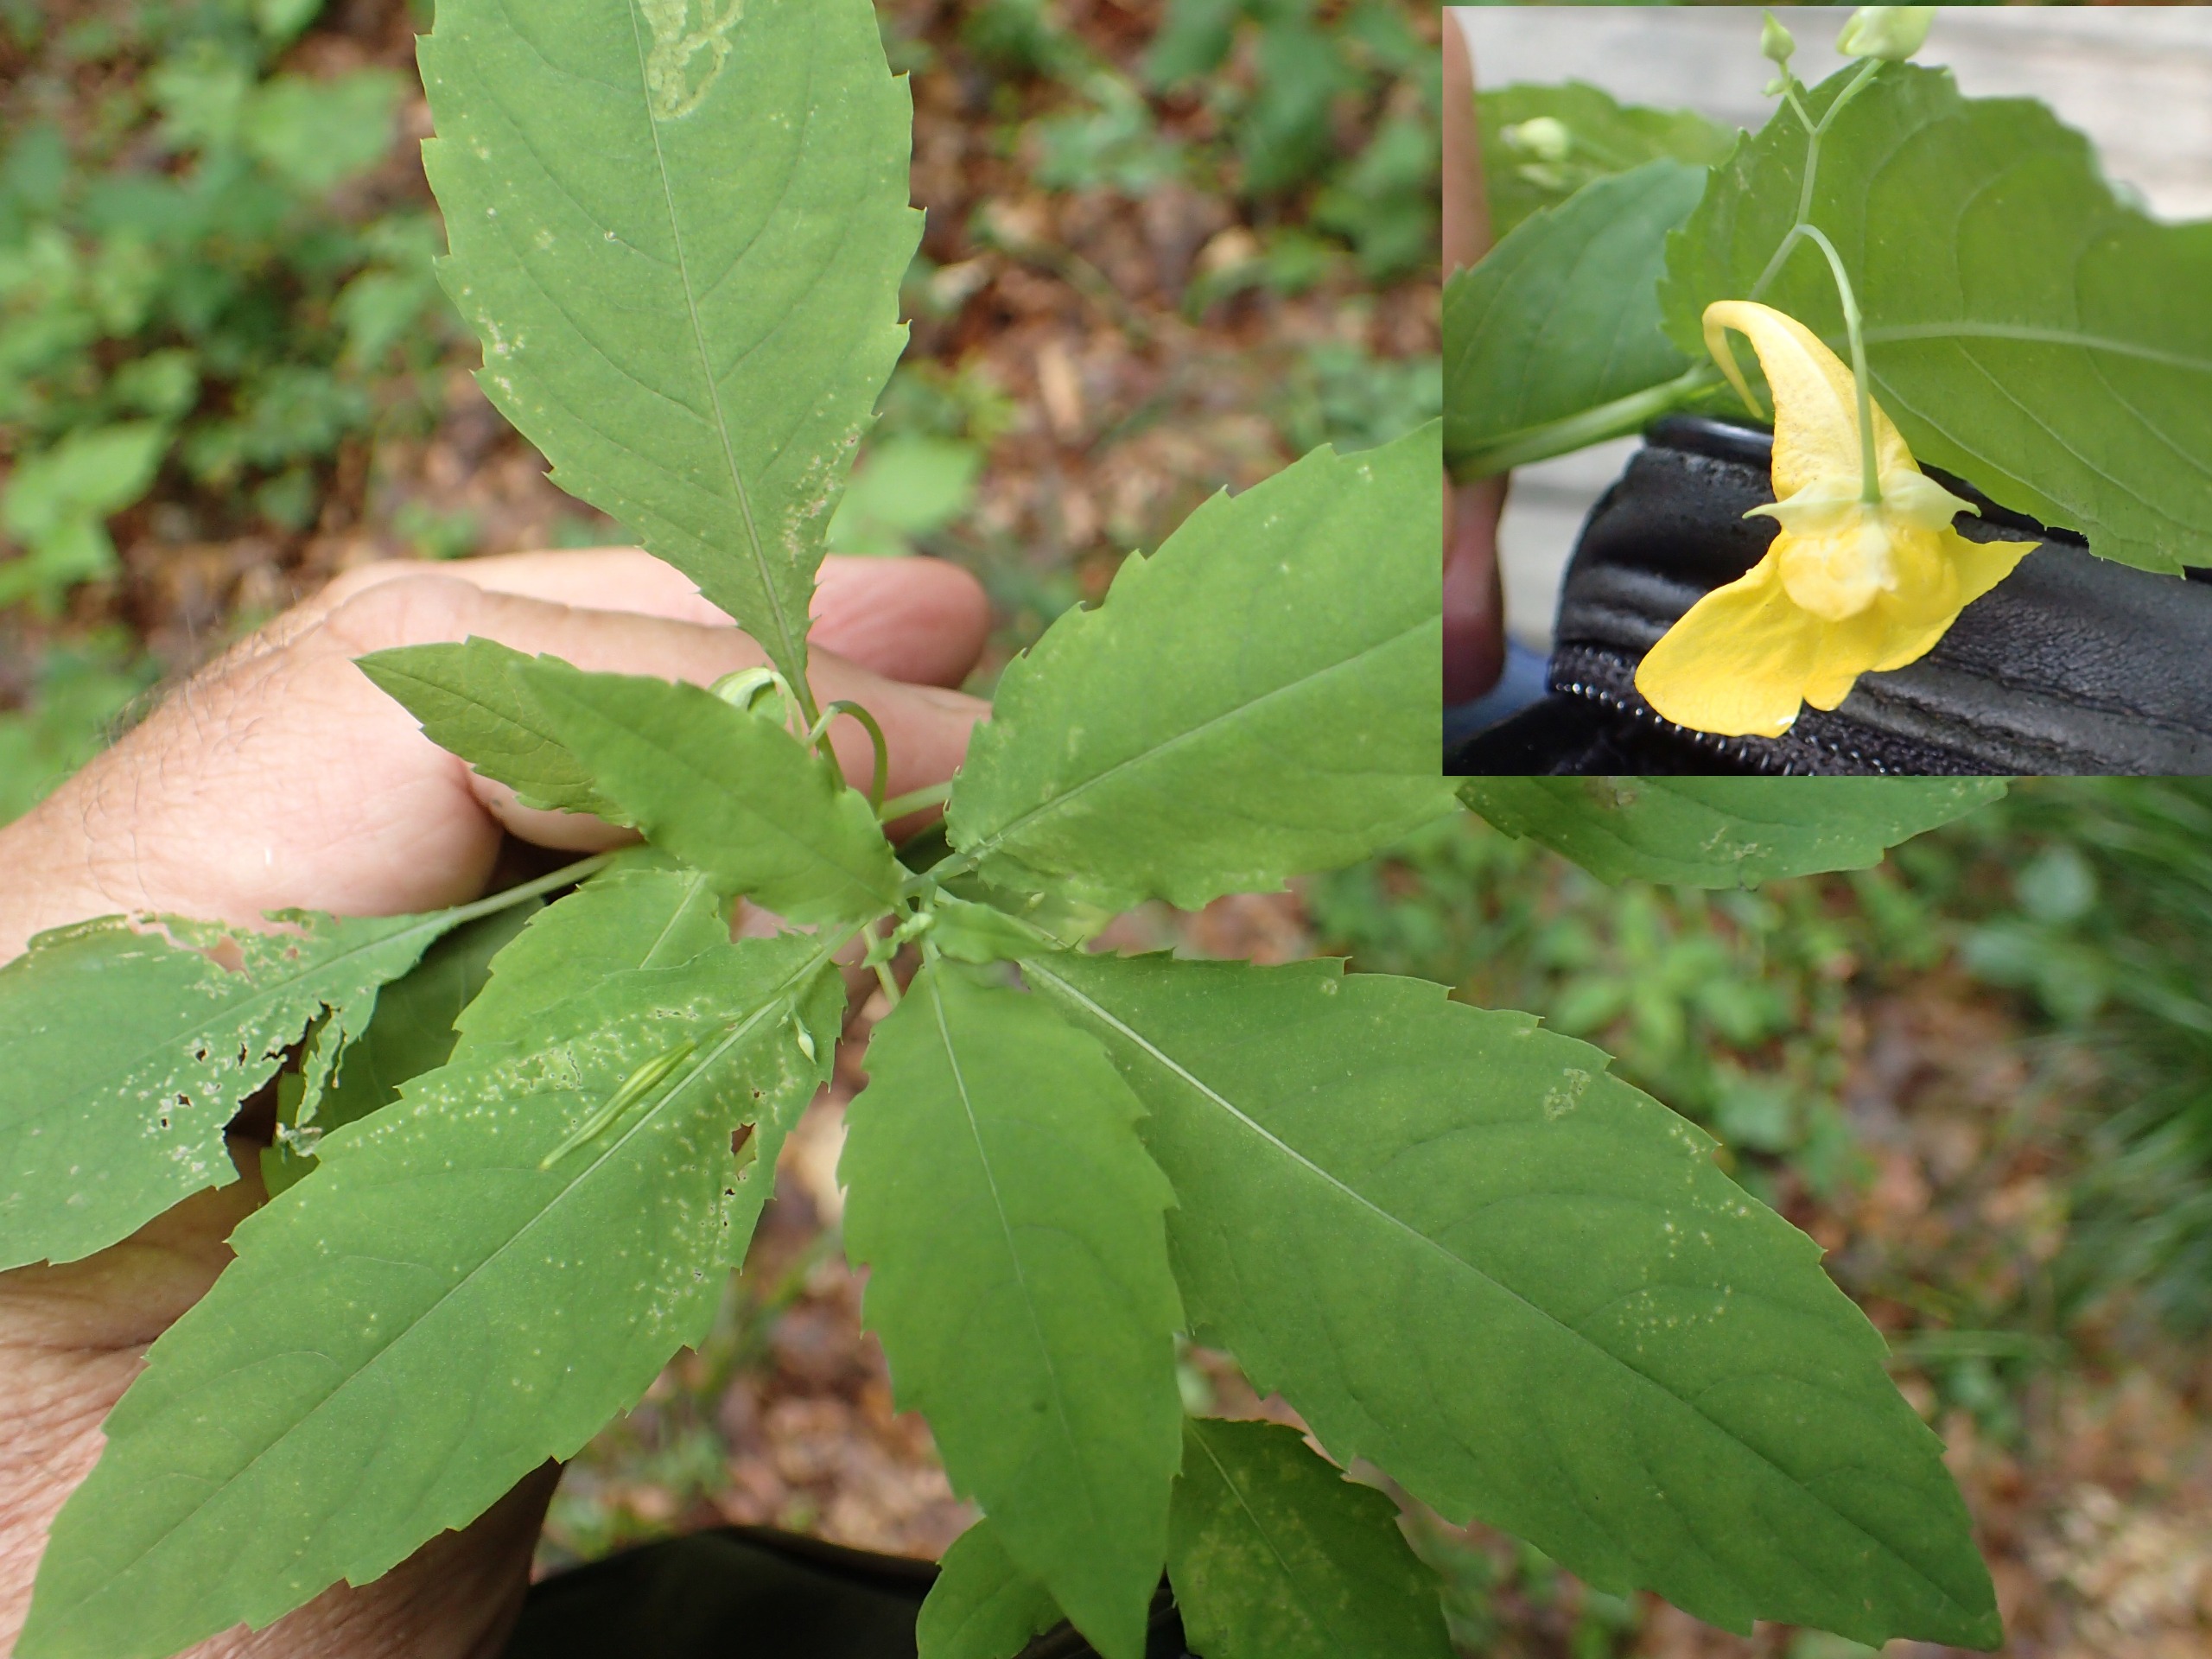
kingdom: Plantae
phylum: Tracheophyta
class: Magnoliopsida
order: Ericales
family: Balsaminaceae
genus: Impatiens
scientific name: Impatiens noli-tangere
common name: Spring-balsamin
